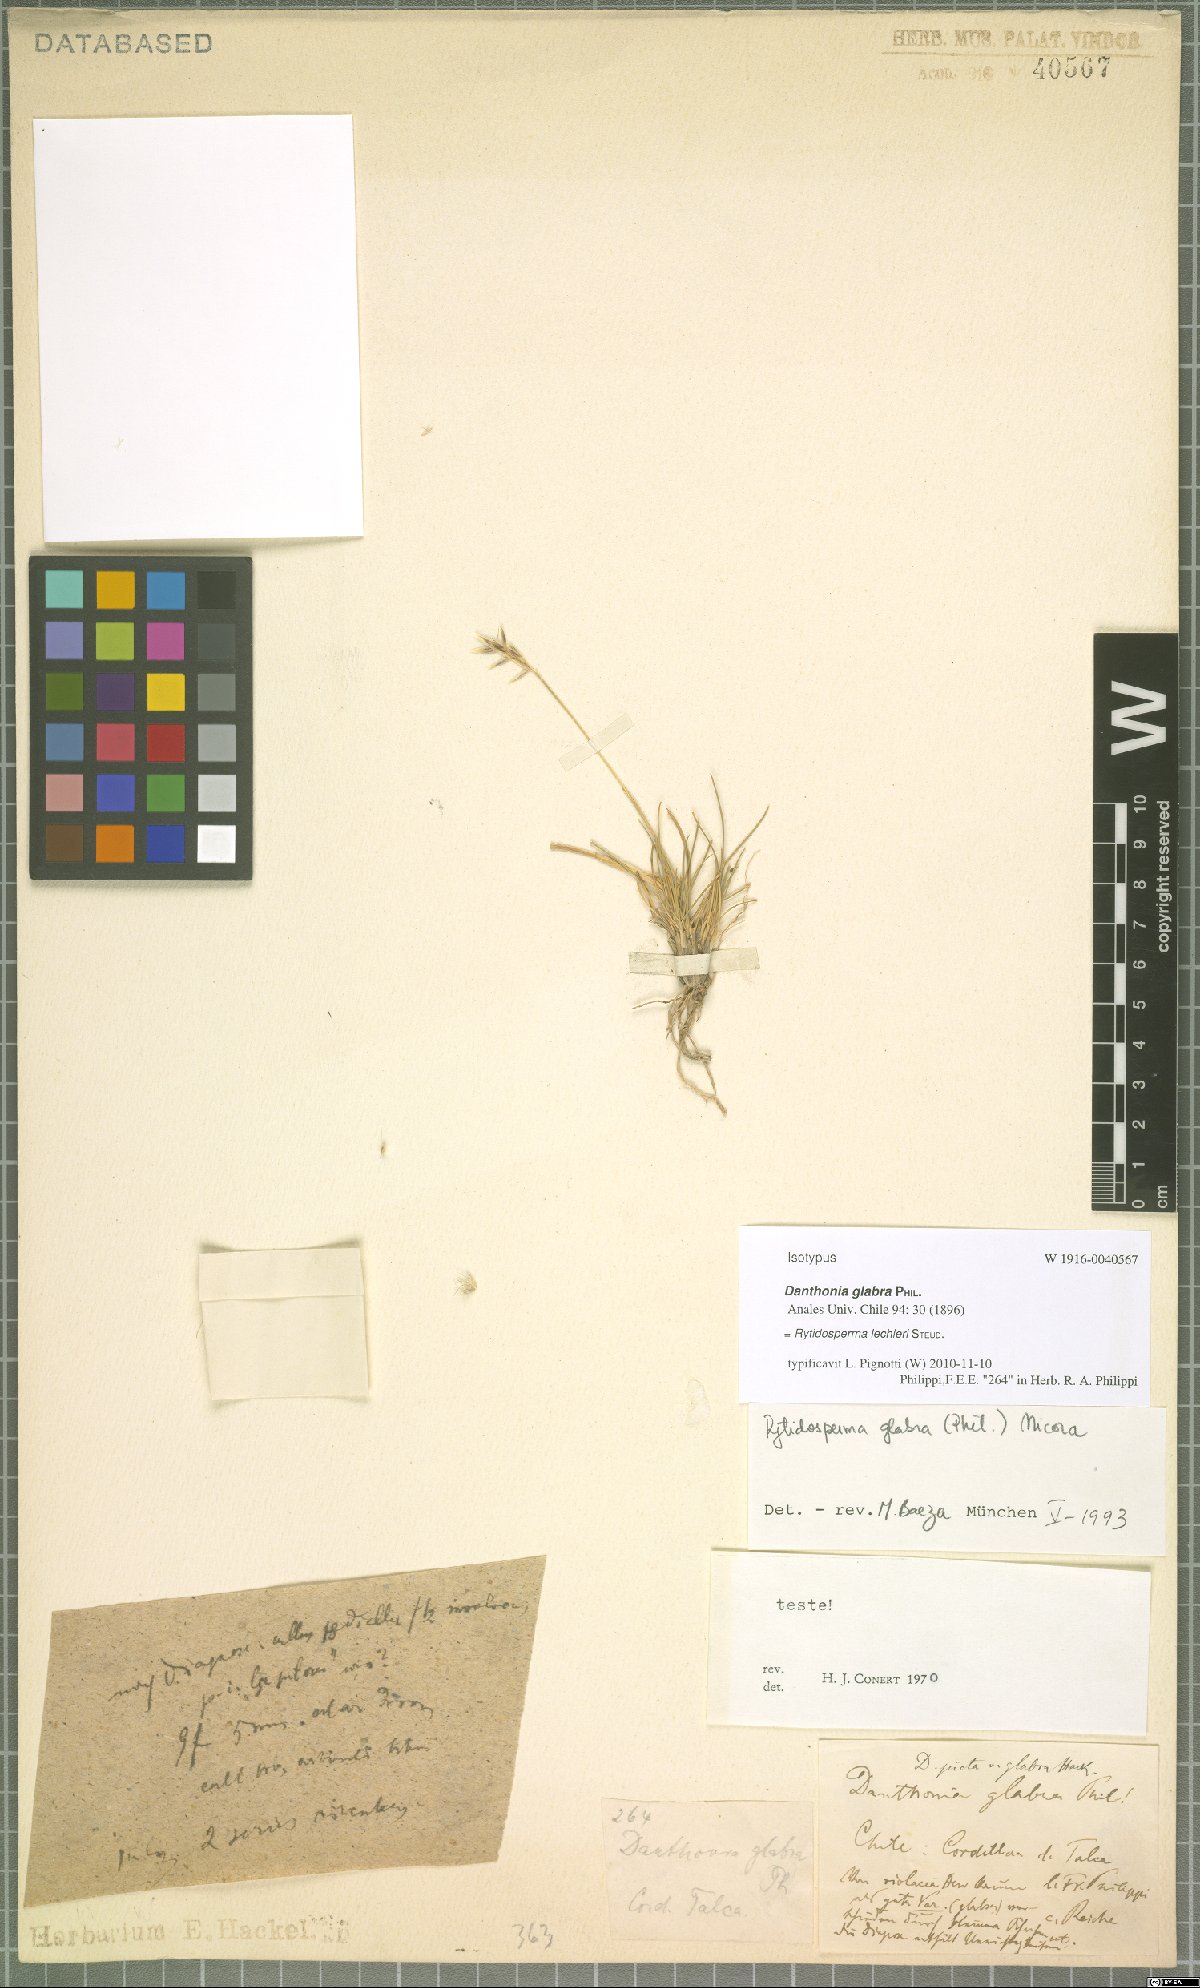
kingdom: Plantae
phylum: Tracheophyta
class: Liliopsida
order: Poales
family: Poaceae
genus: Rytidosperma
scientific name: Rytidosperma lechleri
